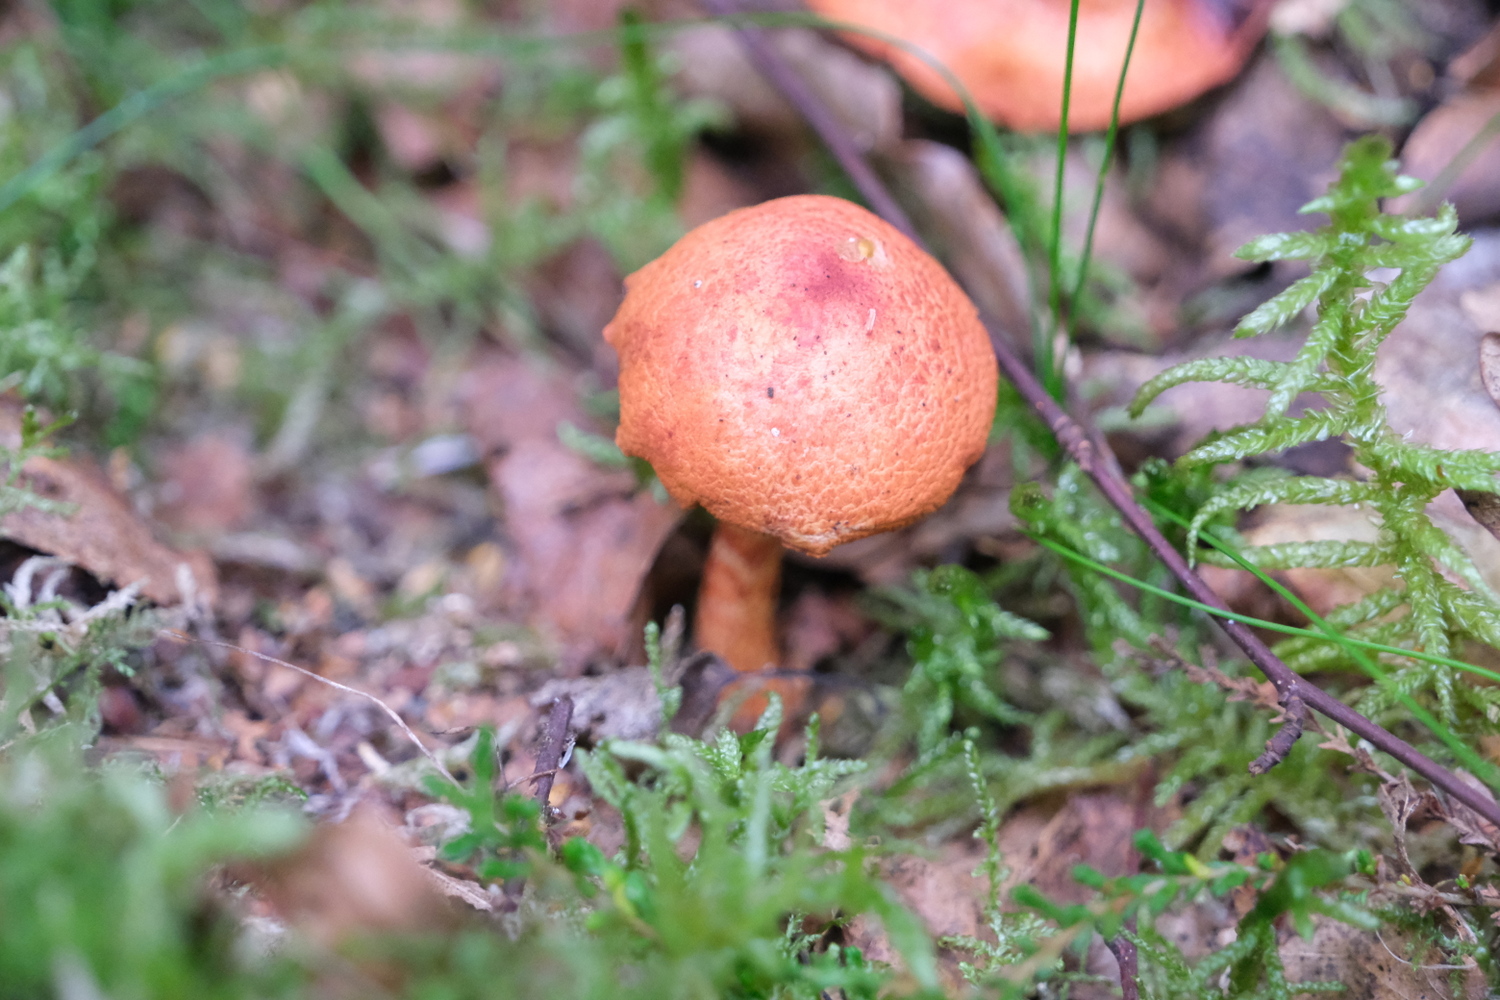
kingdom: Fungi
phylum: Basidiomycota
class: Agaricomycetes
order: Agaricales
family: Cortinariaceae
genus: Cortinarius
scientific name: Cortinarius bolaris
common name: cinnoberskællet slørhat
